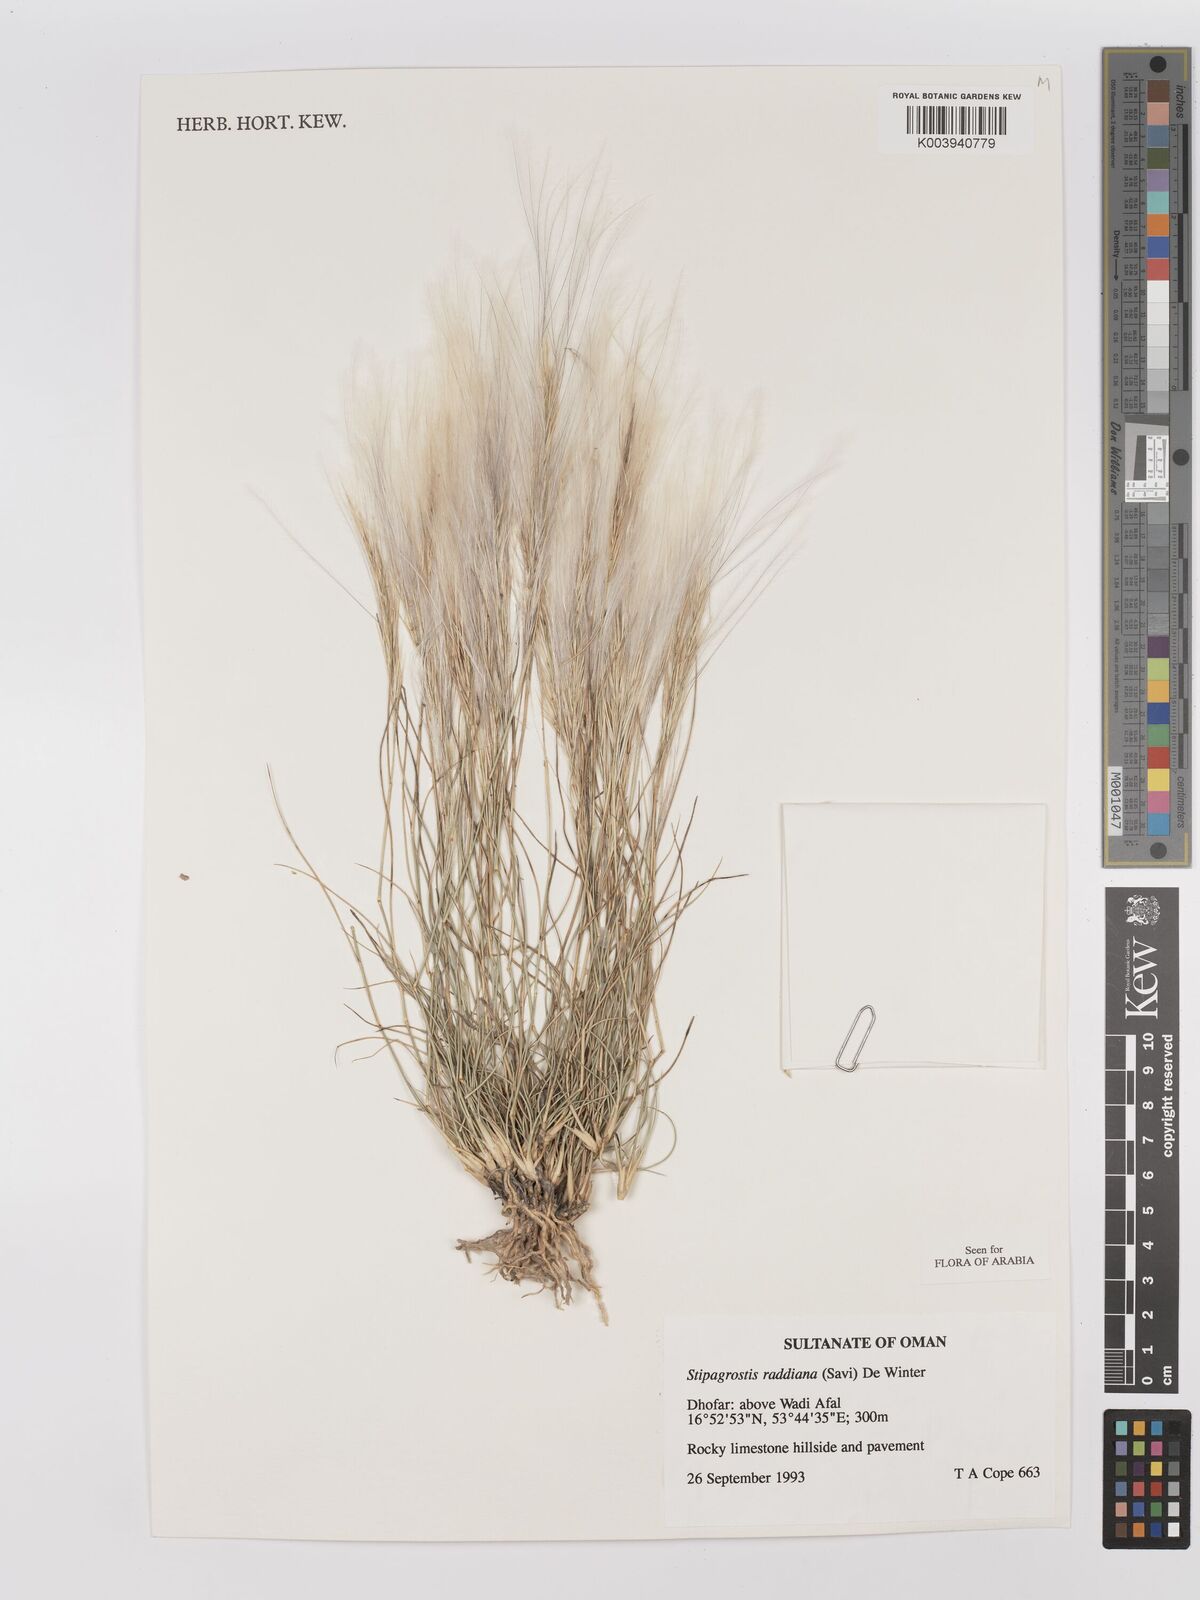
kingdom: Plantae
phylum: Tracheophyta
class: Liliopsida
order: Poales
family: Poaceae
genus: Stipagrostis
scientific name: Stipagrostis raddiana
